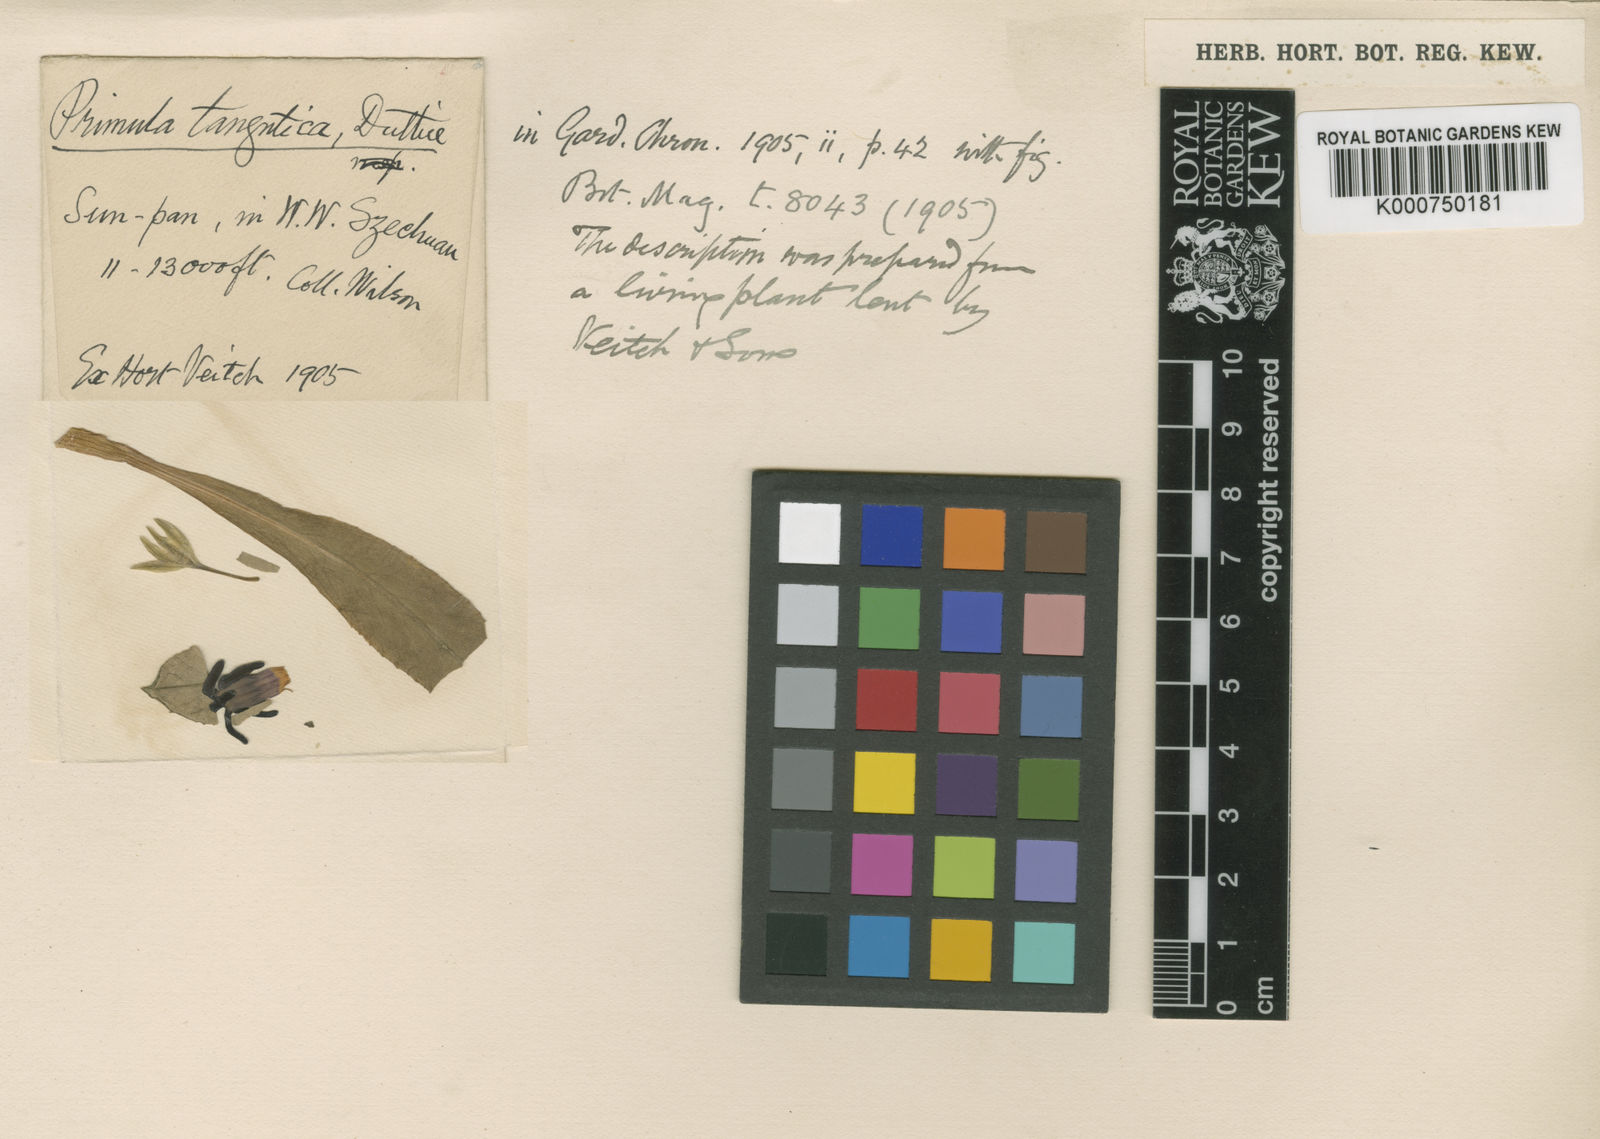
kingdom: Plantae
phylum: Tracheophyta
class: Magnoliopsida
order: Ericales
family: Primulaceae
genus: Primula
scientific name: Primula tangutica
